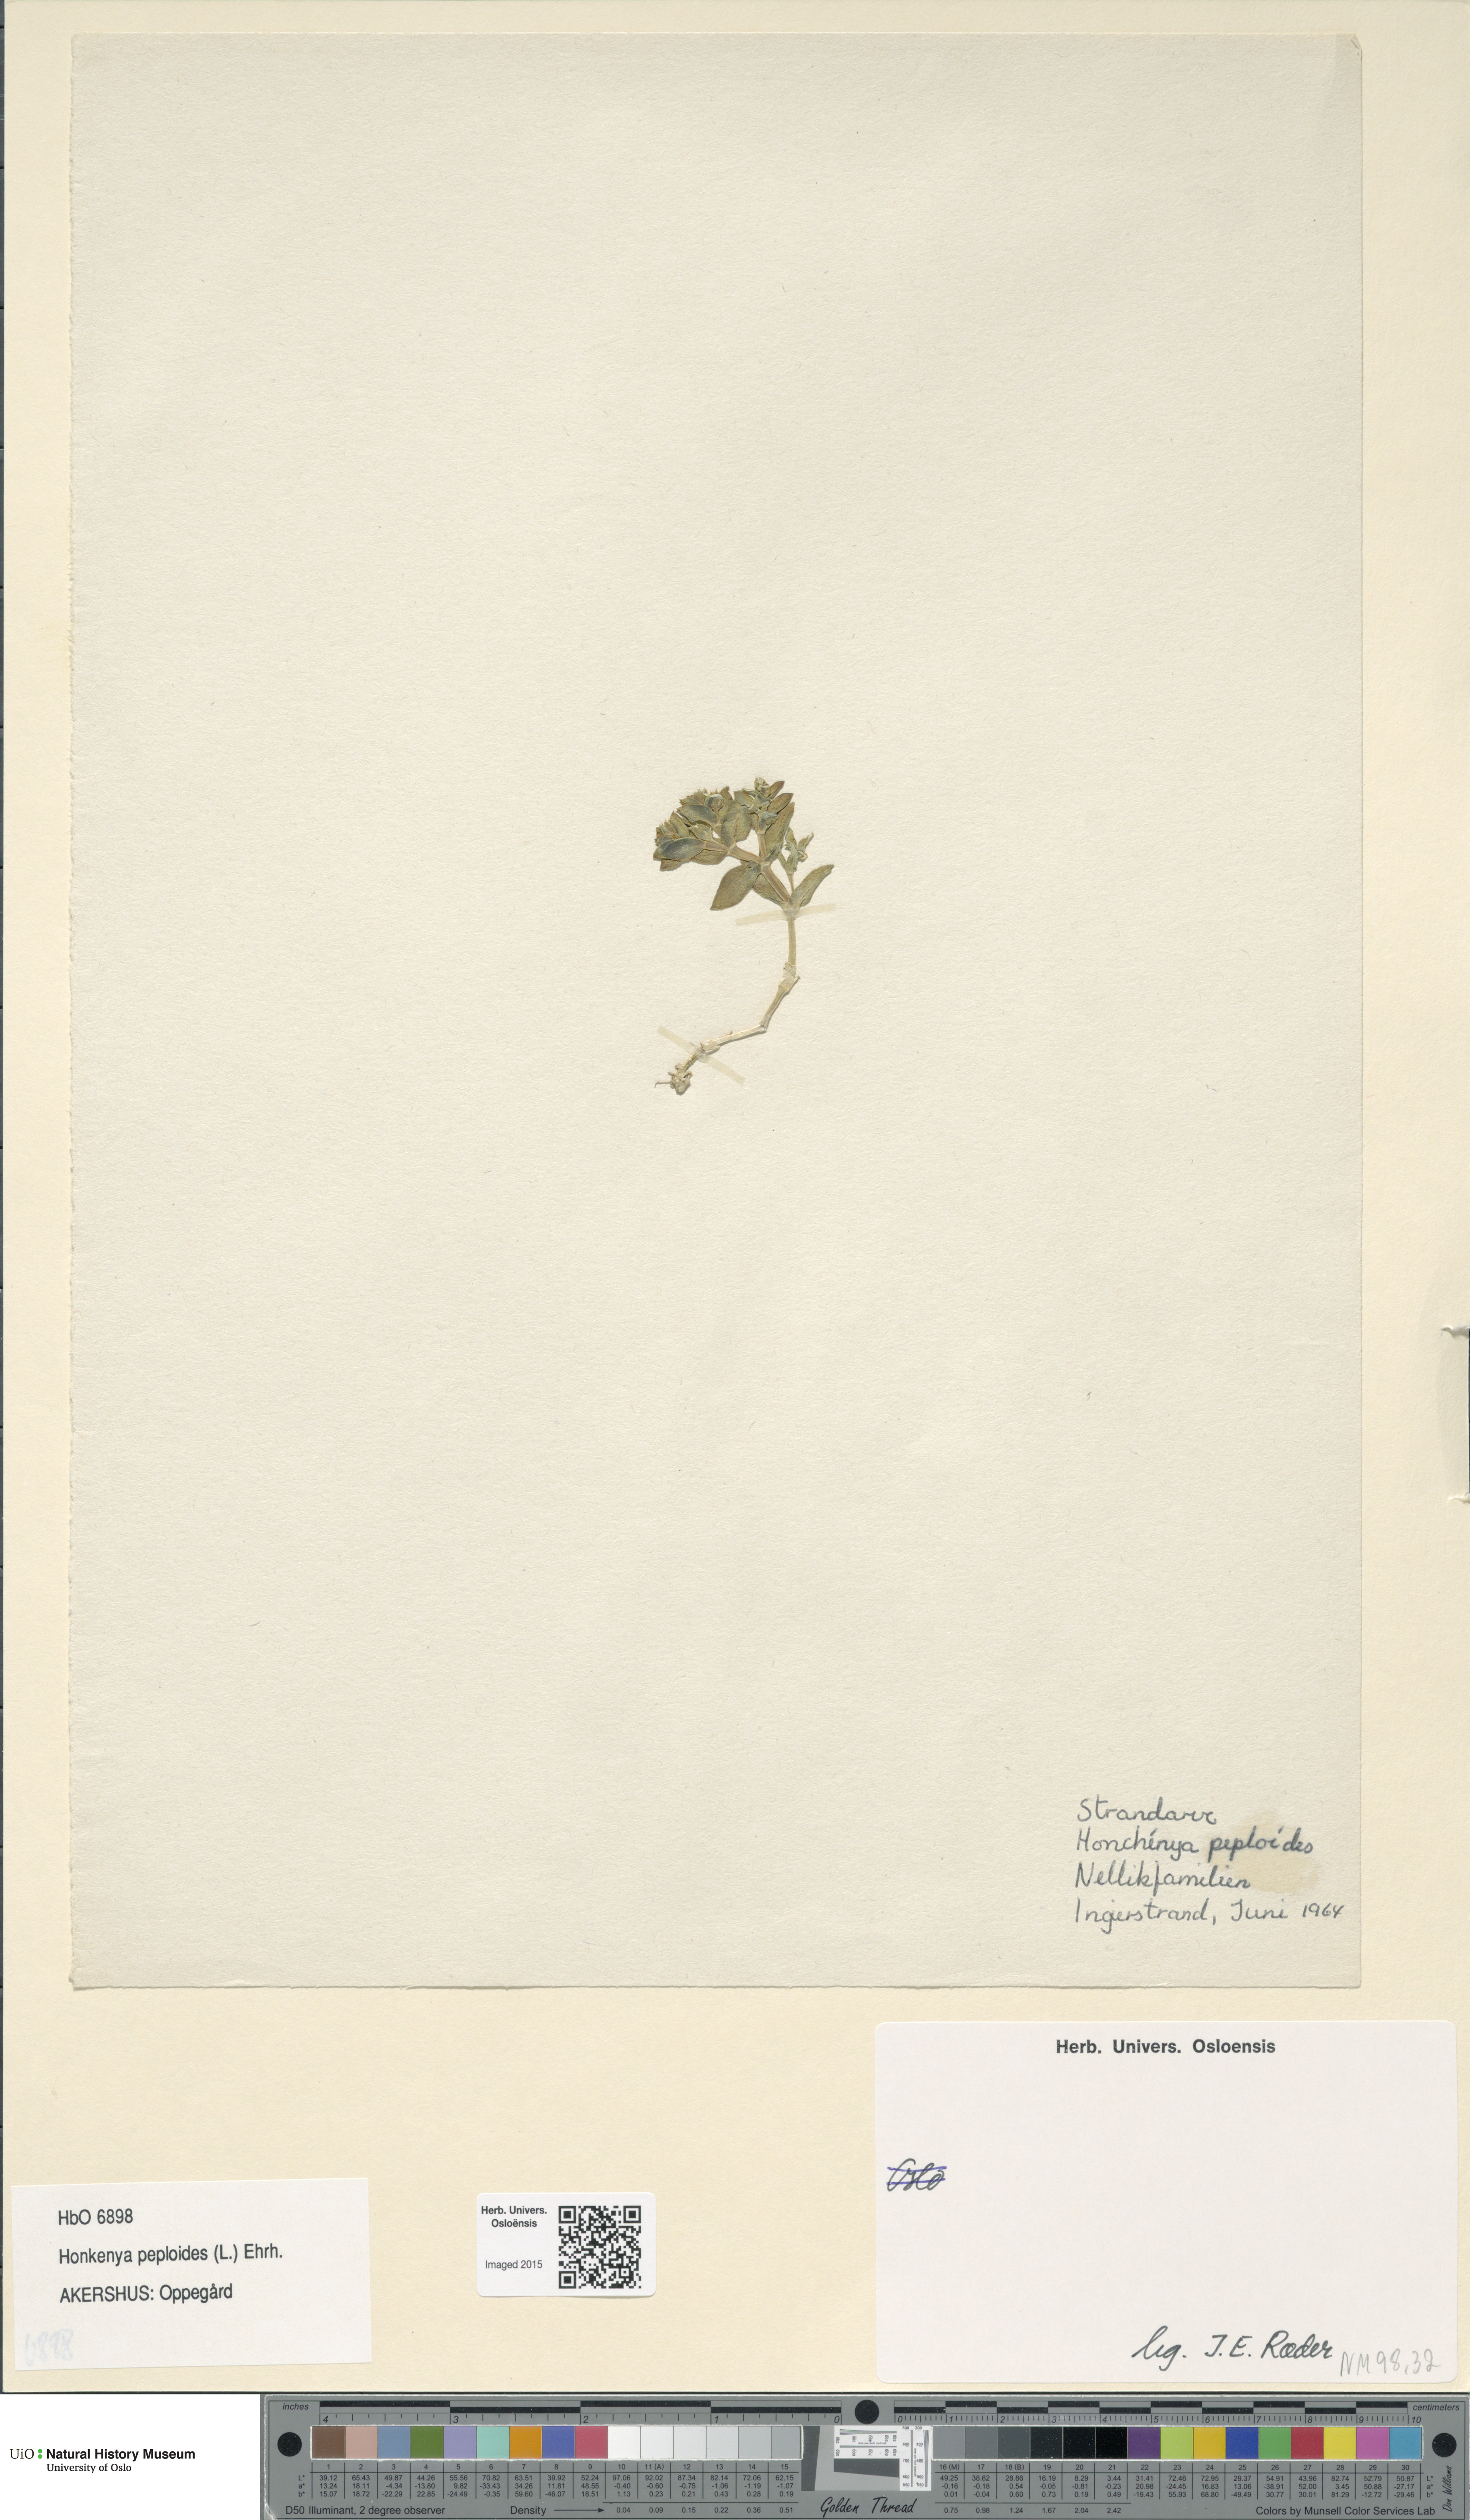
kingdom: Plantae
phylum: Tracheophyta
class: Magnoliopsida
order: Caryophyllales
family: Caryophyllaceae
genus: Honckenya
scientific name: Honckenya peploides
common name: Sea sandwort
